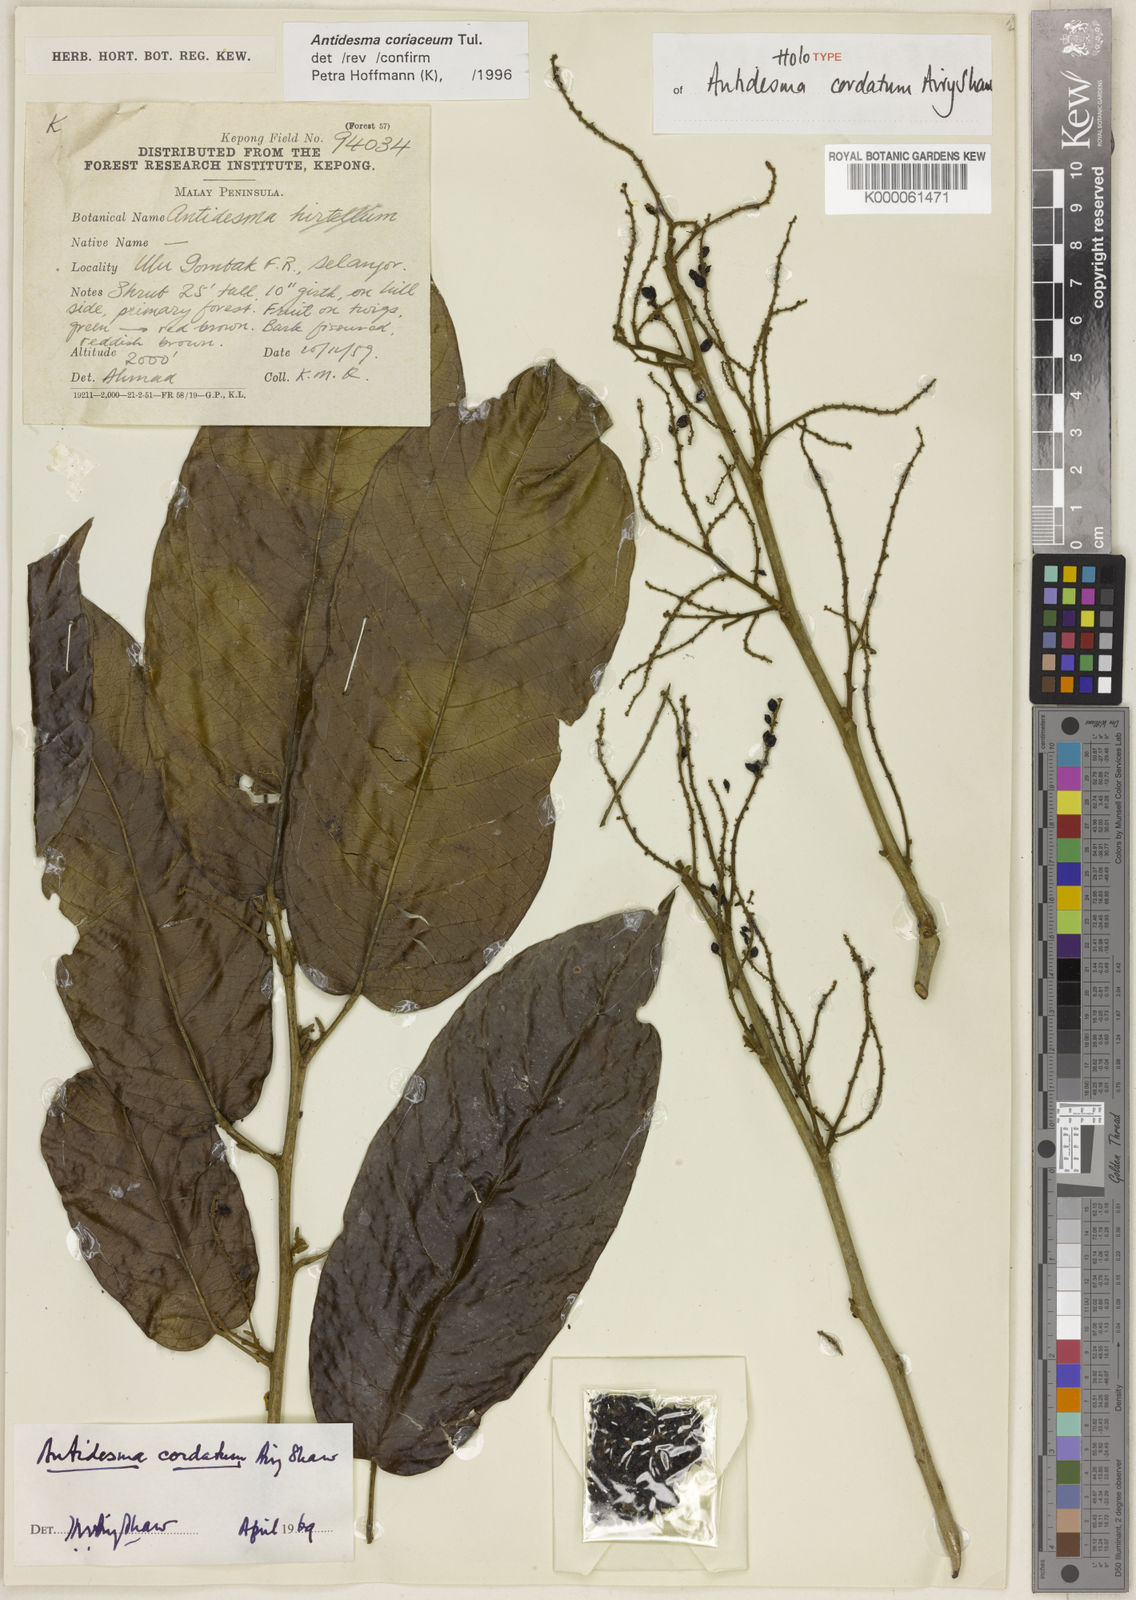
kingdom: Plantae
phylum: Tracheophyta
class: Magnoliopsida
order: Malpighiales
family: Phyllanthaceae
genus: Antidesma
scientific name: Antidesma coriaceum
